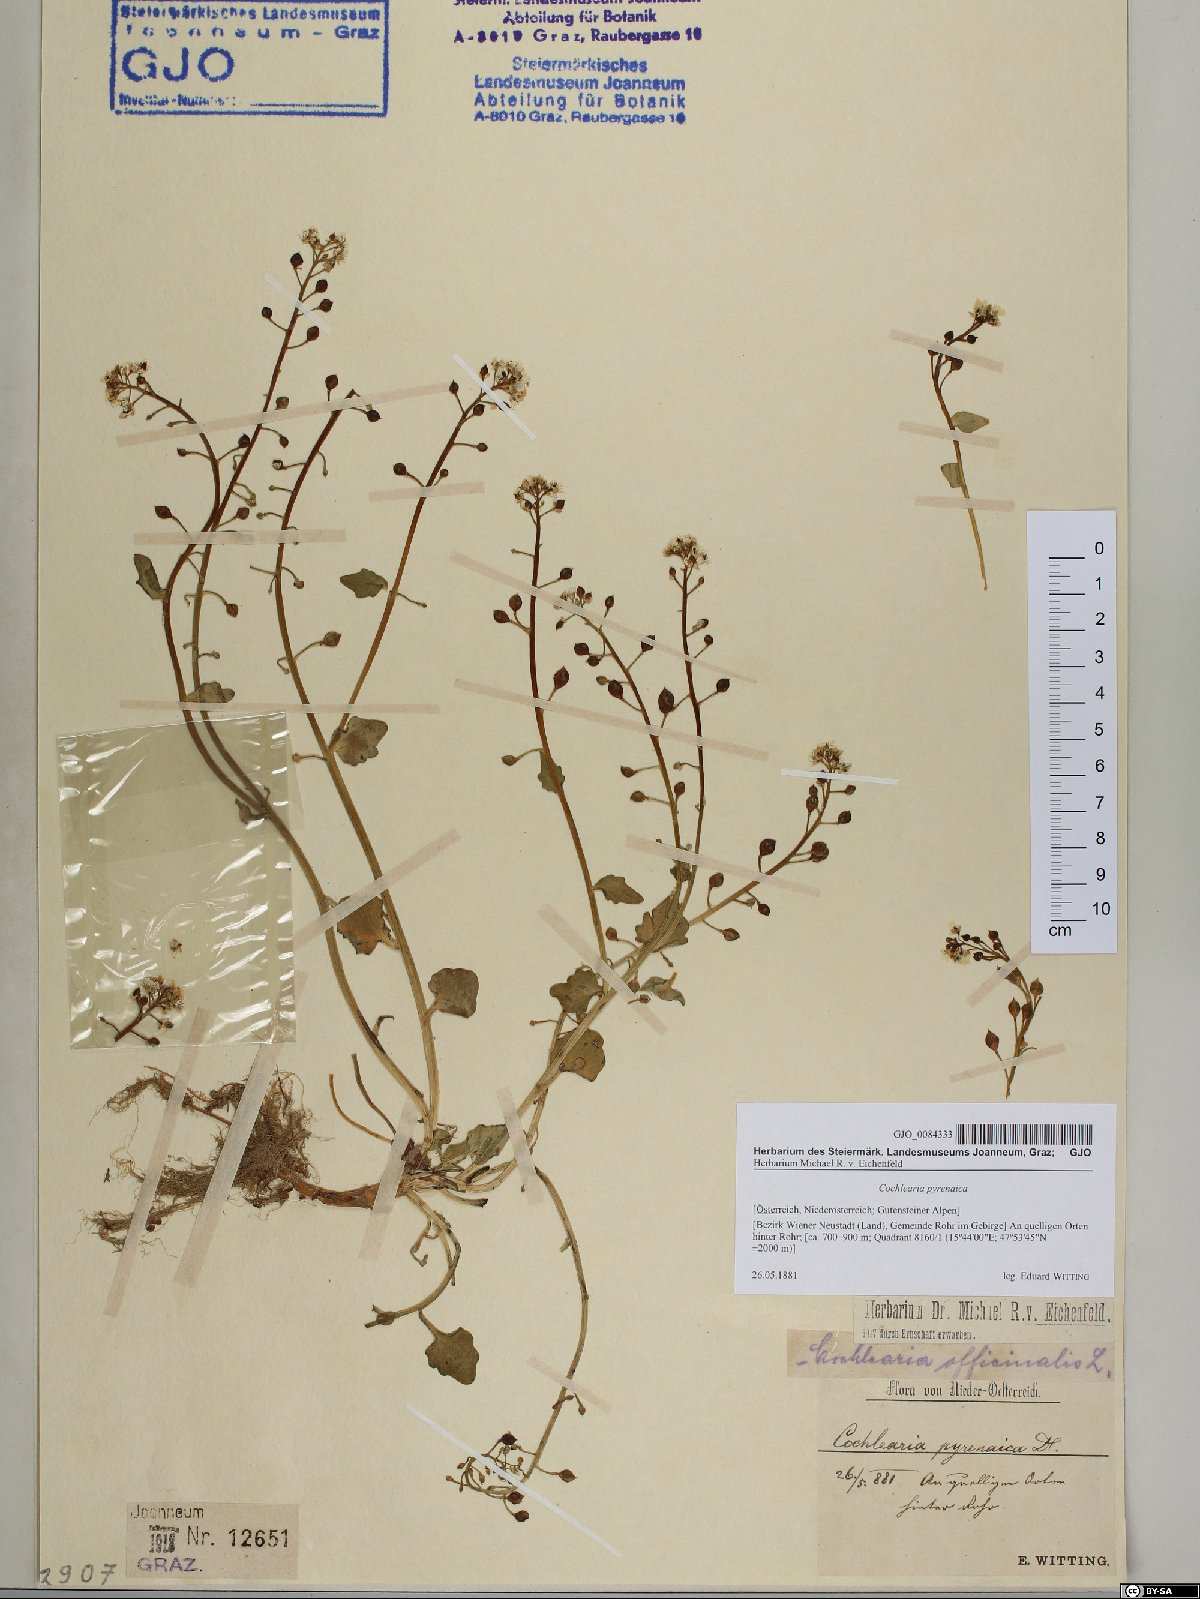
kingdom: Plantae
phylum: Tracheophyta
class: Magnoliopsida
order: Brassicales
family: Brassicaceae
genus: Cochlearia
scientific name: Cochlearia pyrenaica
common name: Upland scurvy-grass
